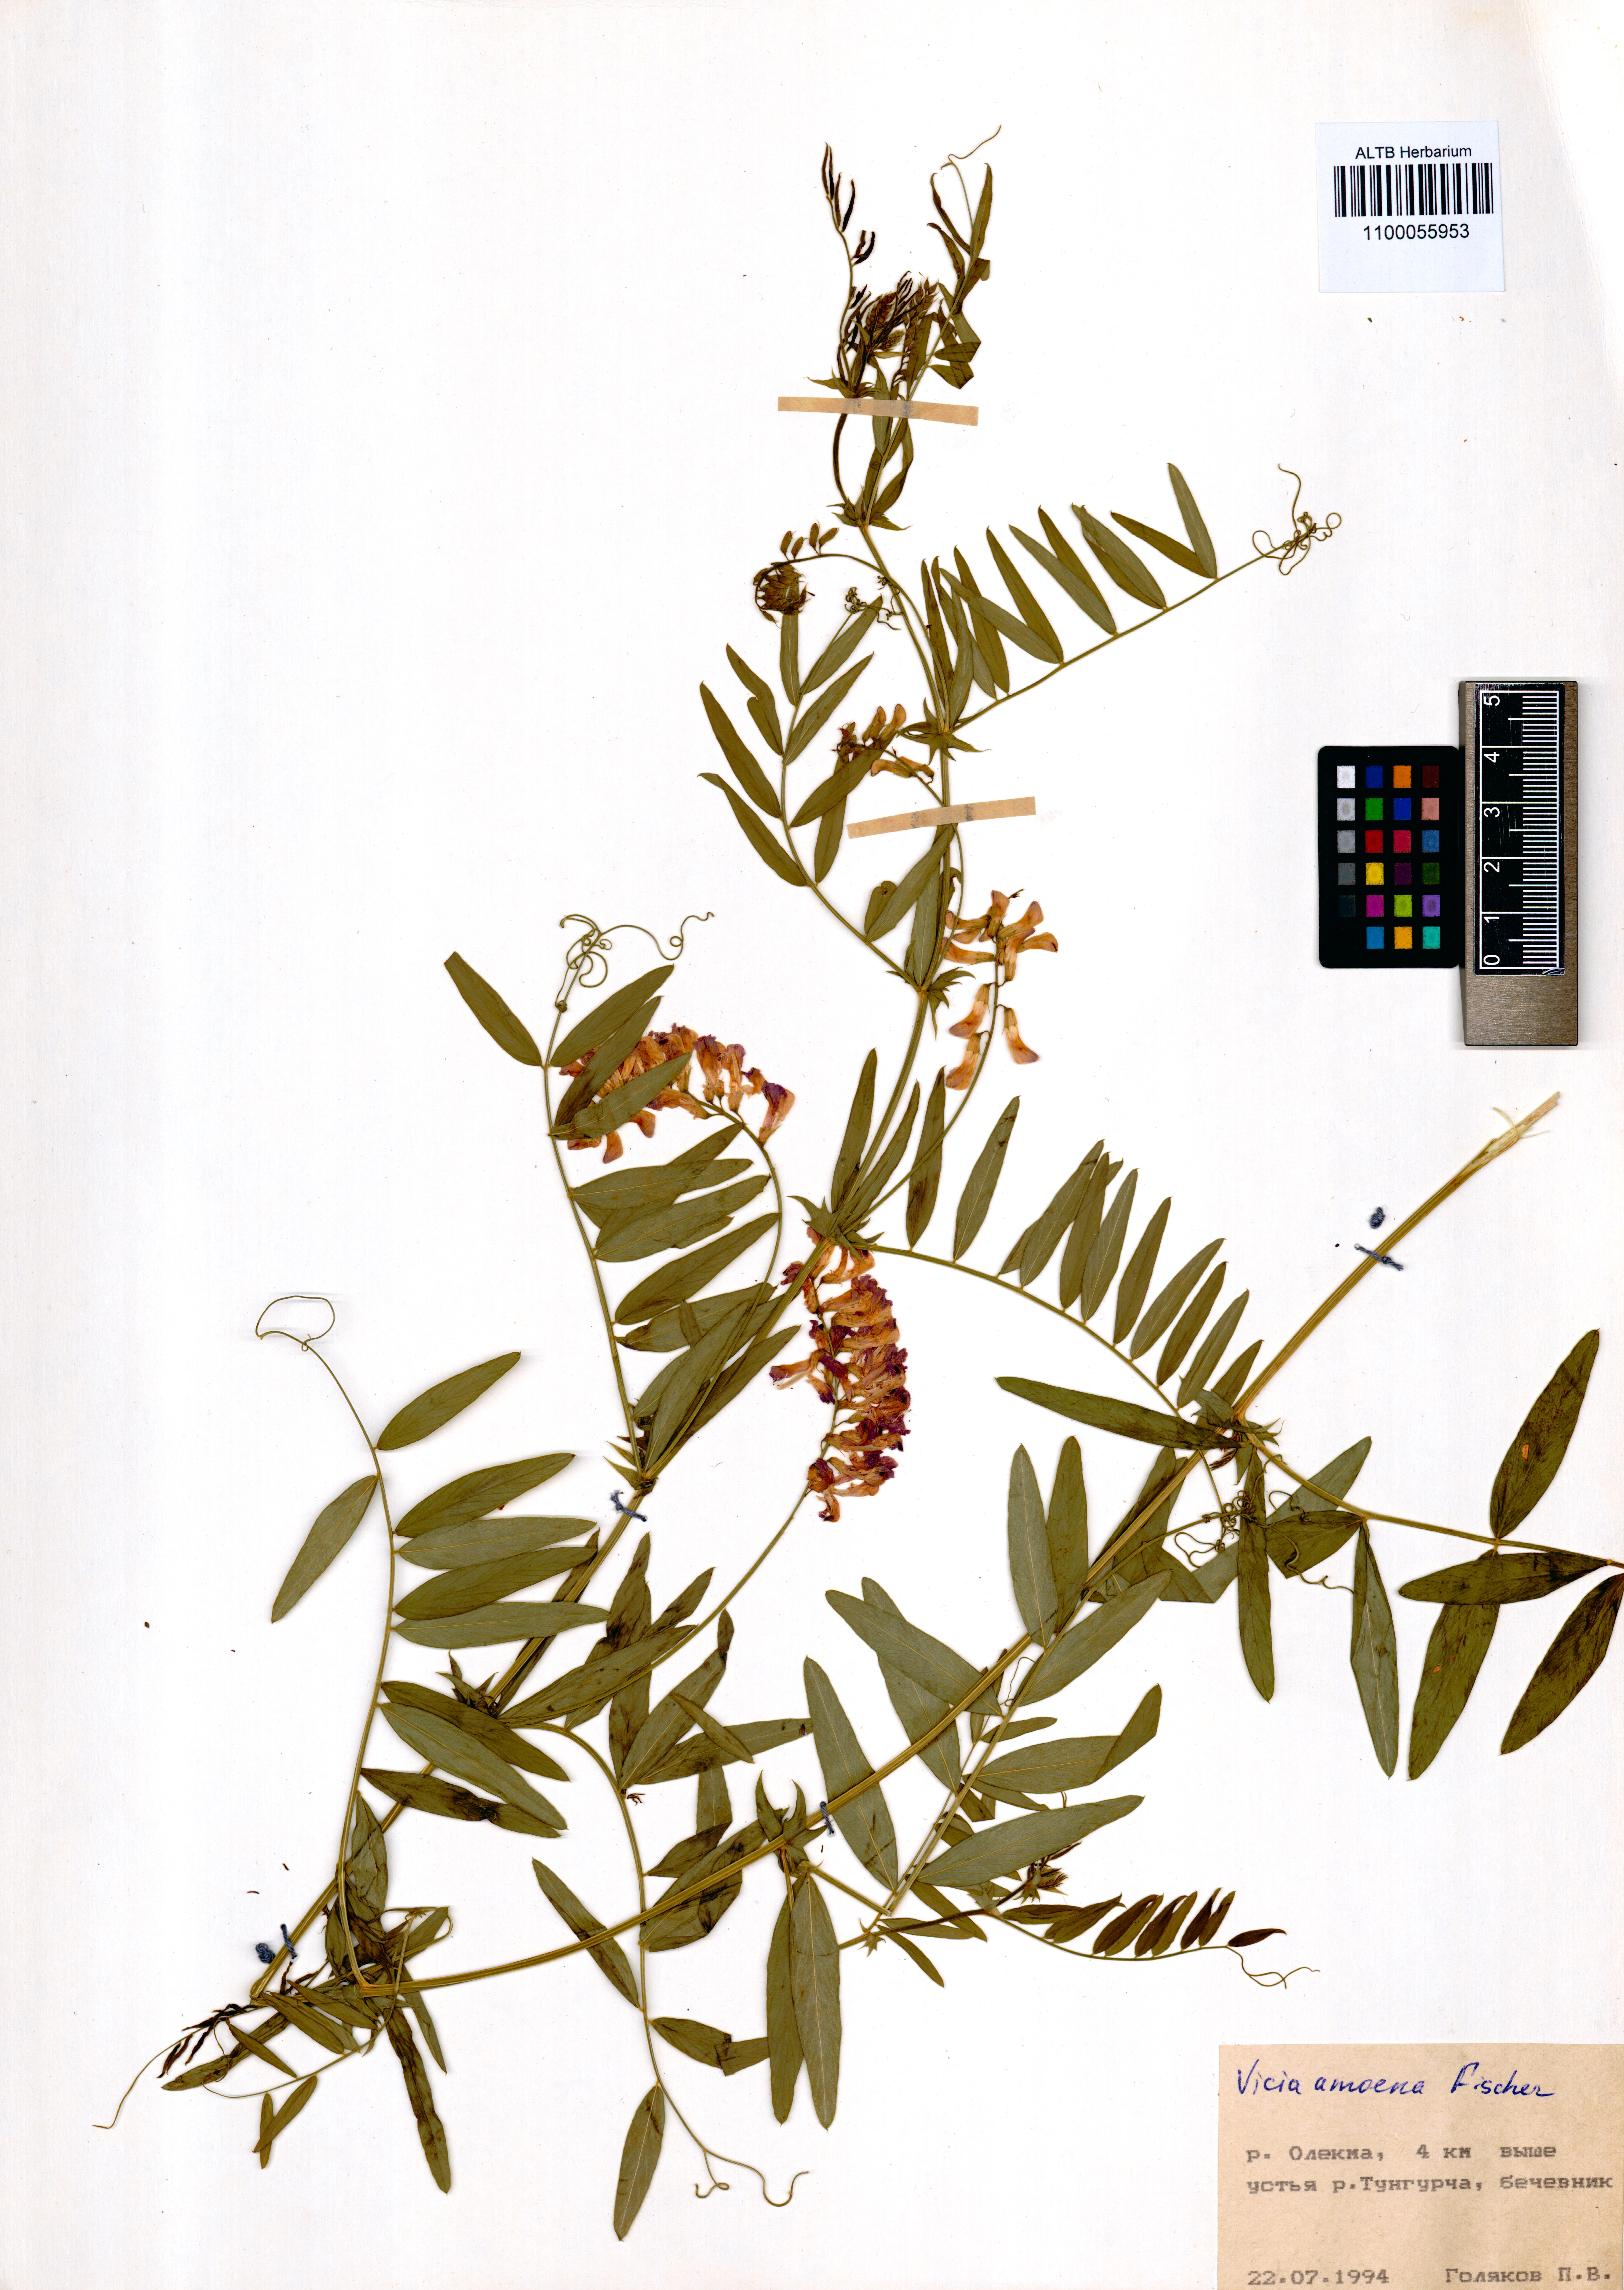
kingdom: Plantae
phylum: Tracheophyta
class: Magnoliopsida
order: Fabales
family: Fabaceae
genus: Vicia
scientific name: Vicia amoena
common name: Cheder ebs
